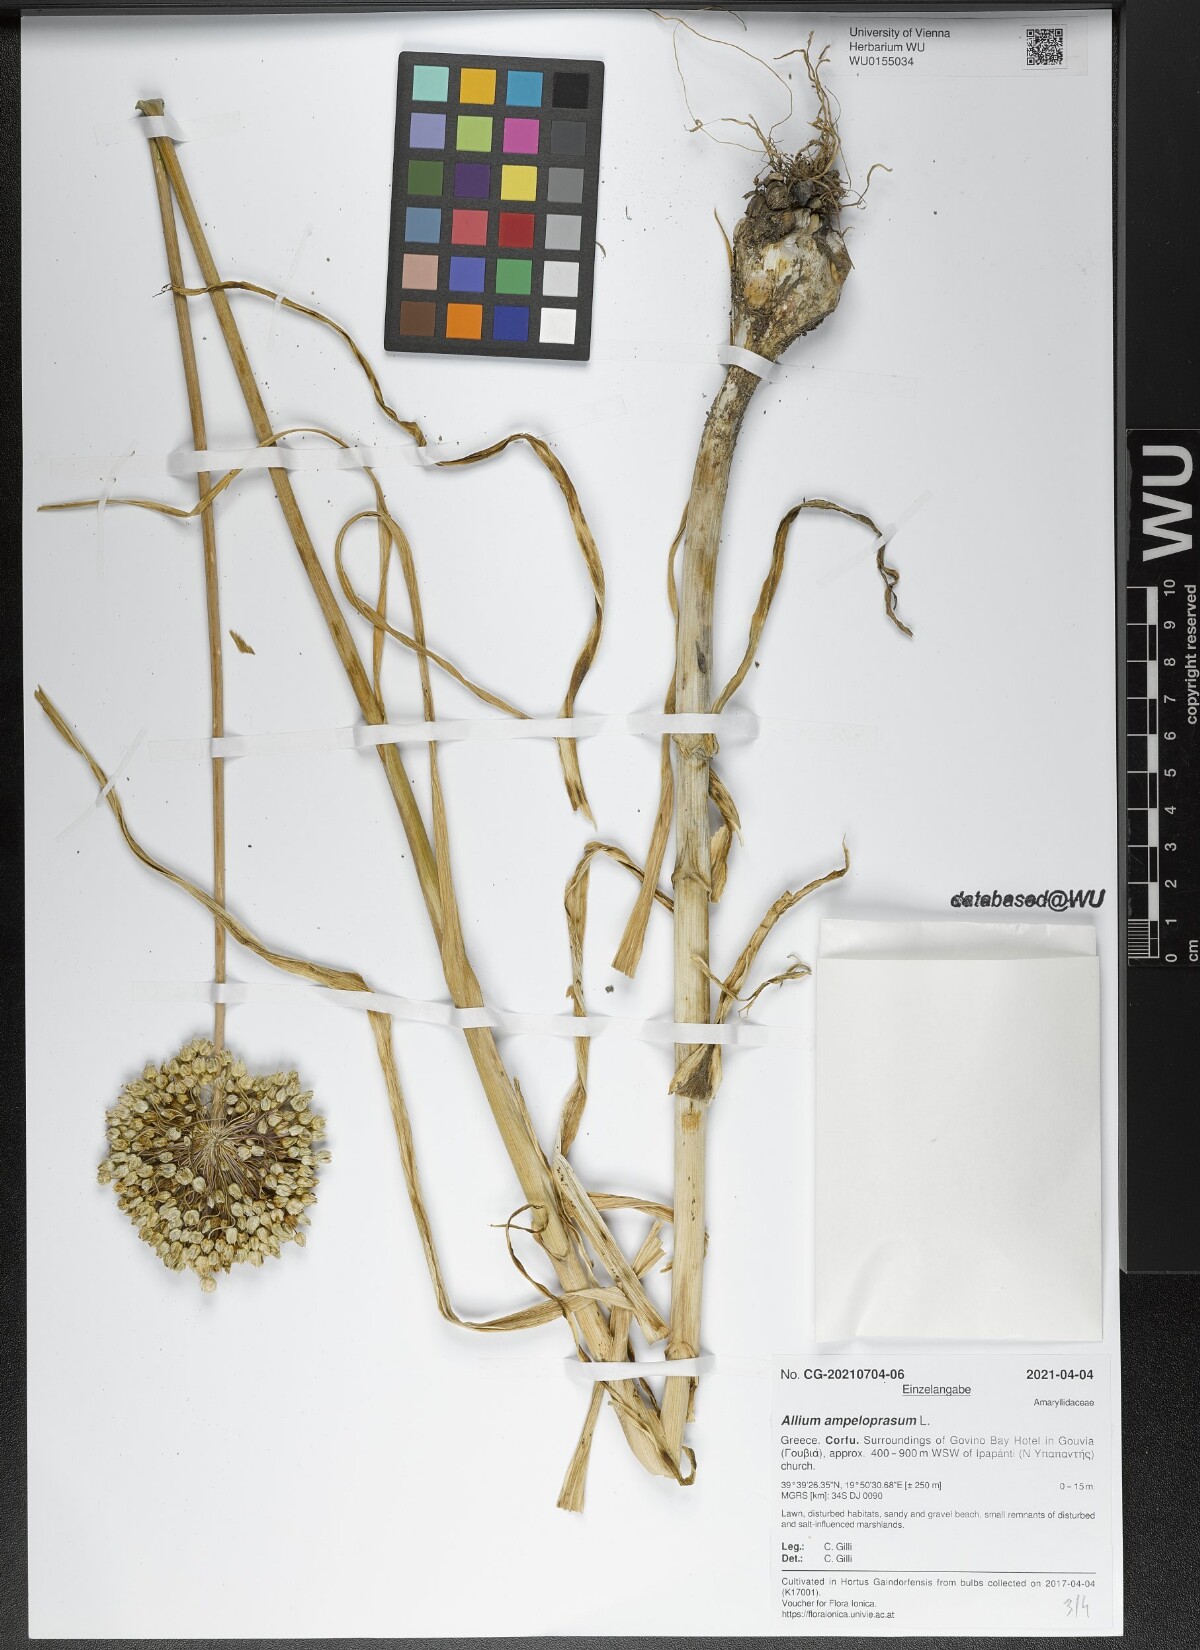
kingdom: Plantae
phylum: Tracheophyta
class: Liliopsida
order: Asparagales
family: Amaryllidaceae
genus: Allium
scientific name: Allium ampeloprasum
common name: Wild leek
